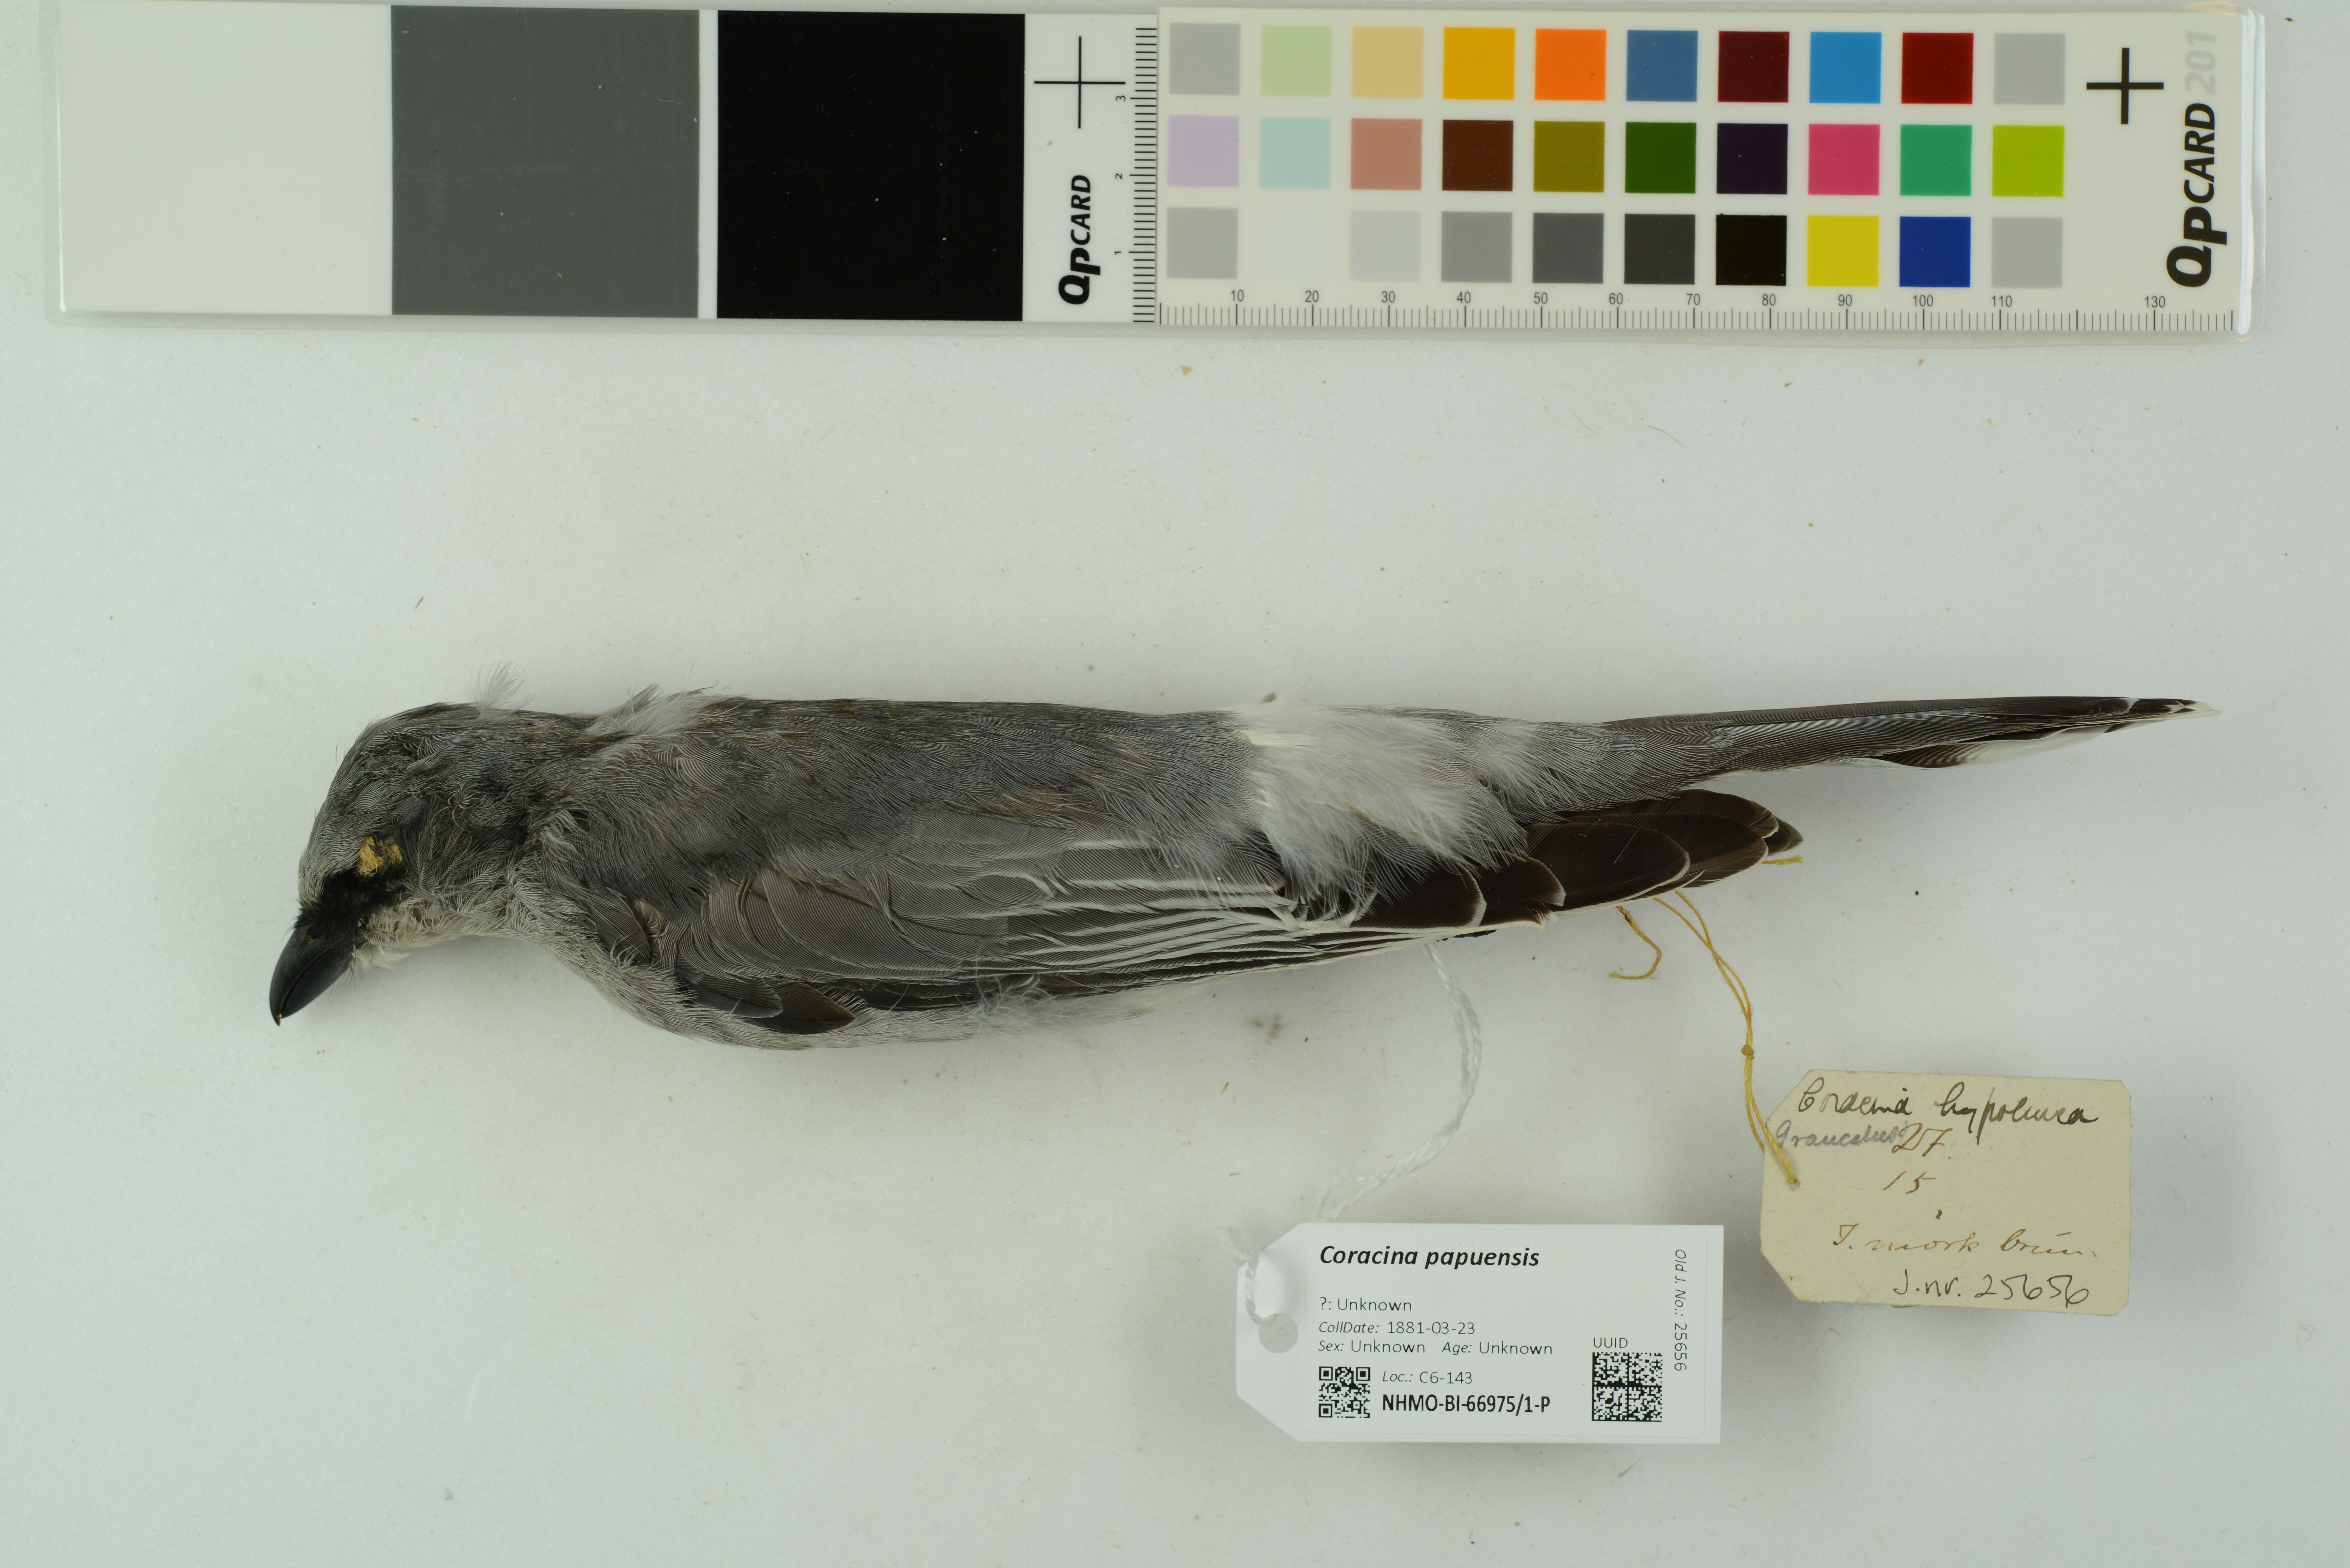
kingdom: Animalia
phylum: Chordata
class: Aves
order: Passeriformes
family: Campephagidae
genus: Coracina
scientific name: Coracina papuensis
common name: White-bellied cuckooshrike
